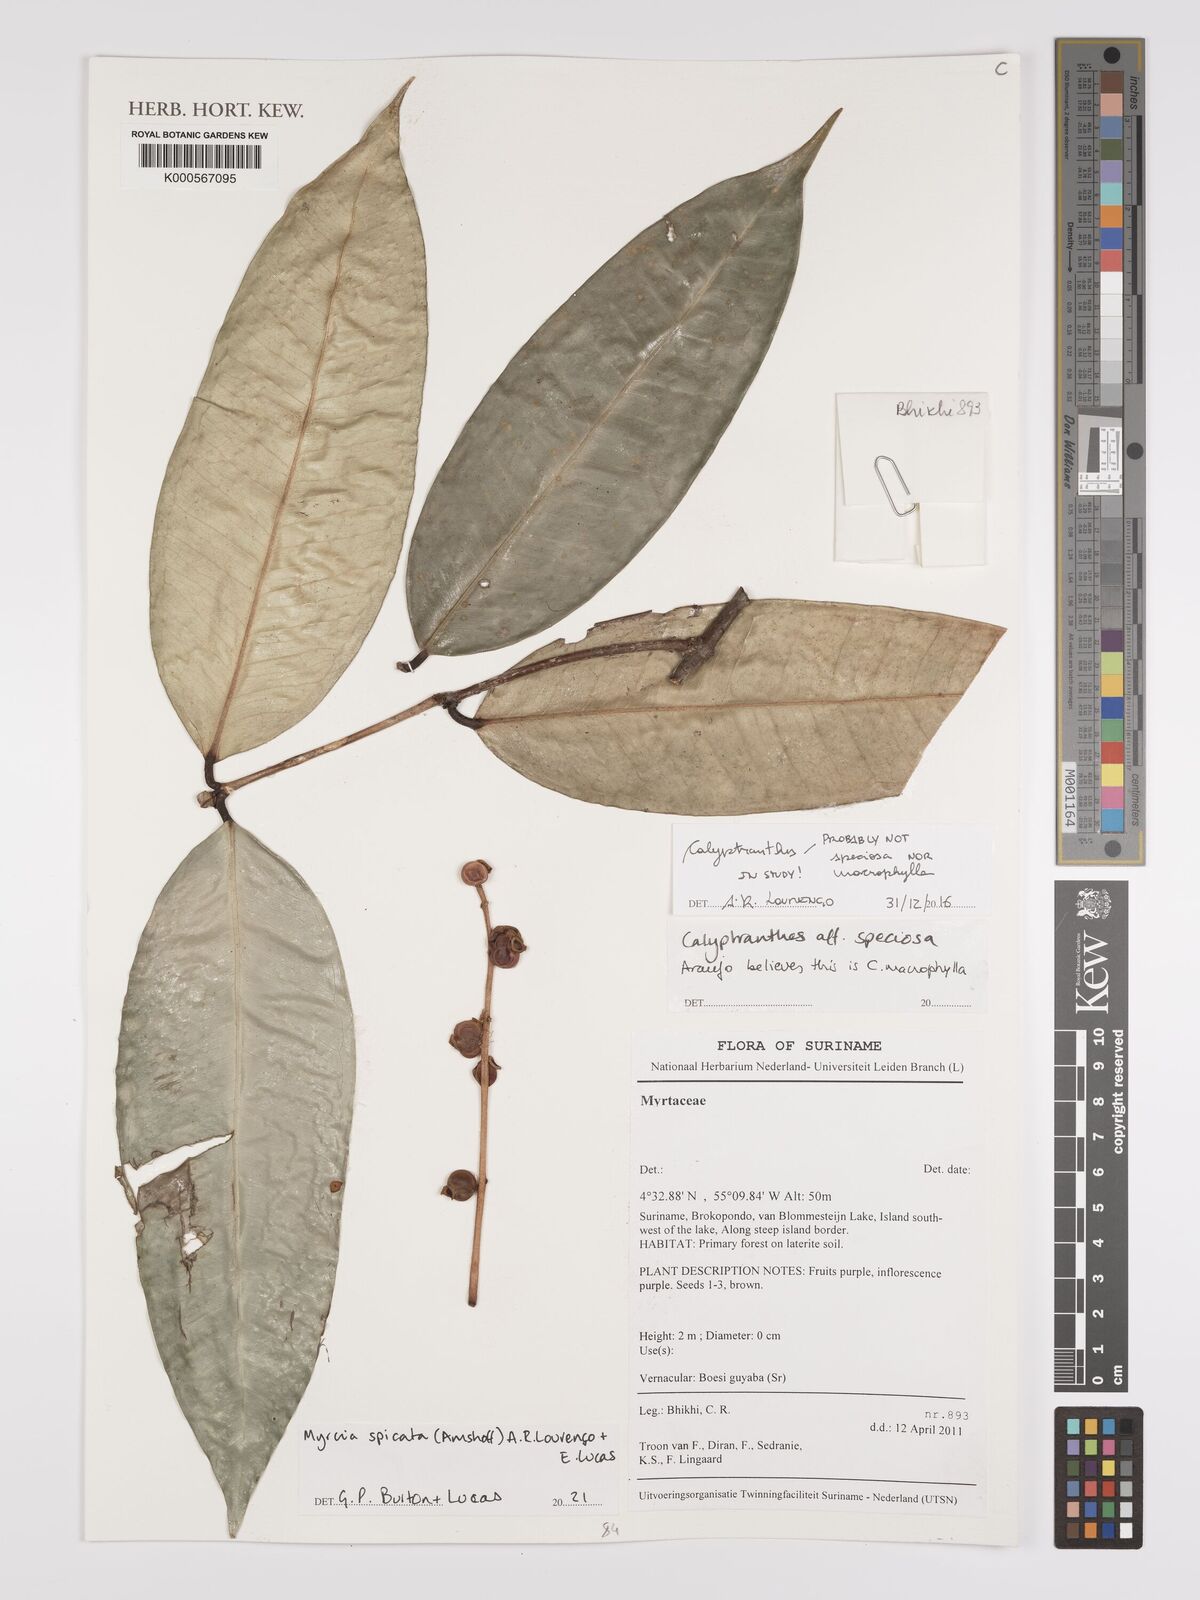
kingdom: Plantae
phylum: Tracheophyta
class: Magnoliopsida
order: Myrtales
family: Myrtaceae
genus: Myrcia
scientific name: Myrcia spicata
